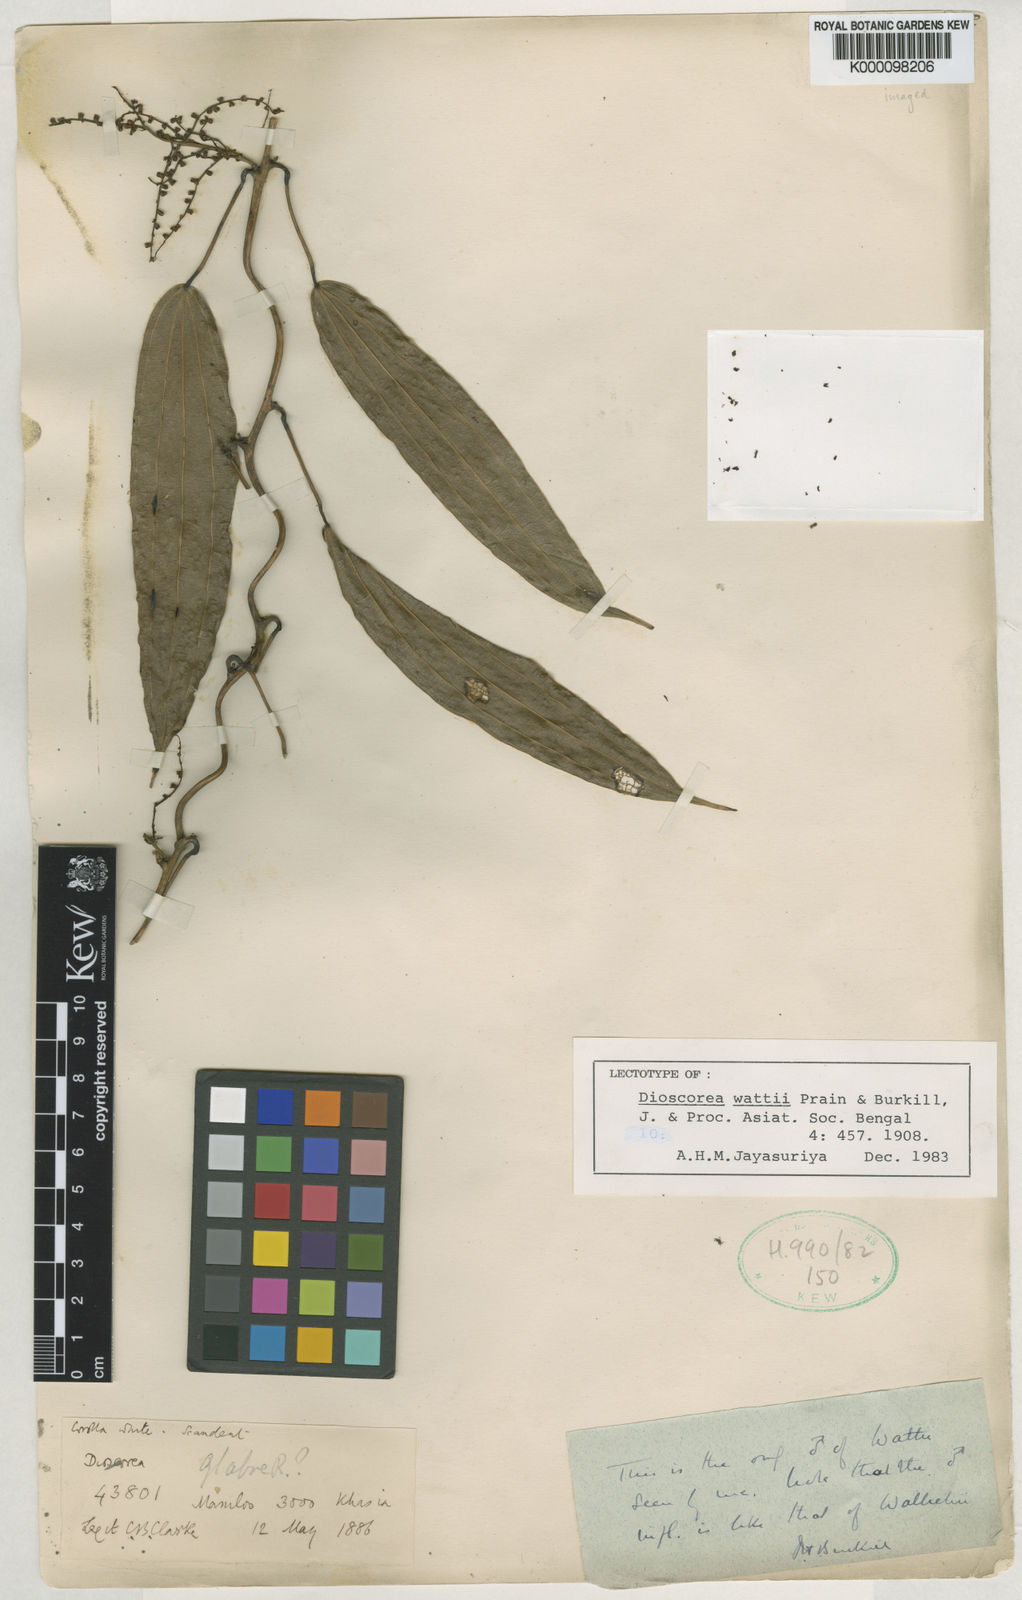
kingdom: Plantae
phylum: Tracheophyta
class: Liliopsida
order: Dioscoreales
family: Dioscoreaceae
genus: Dioscorea
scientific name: Dioscorea wattii
